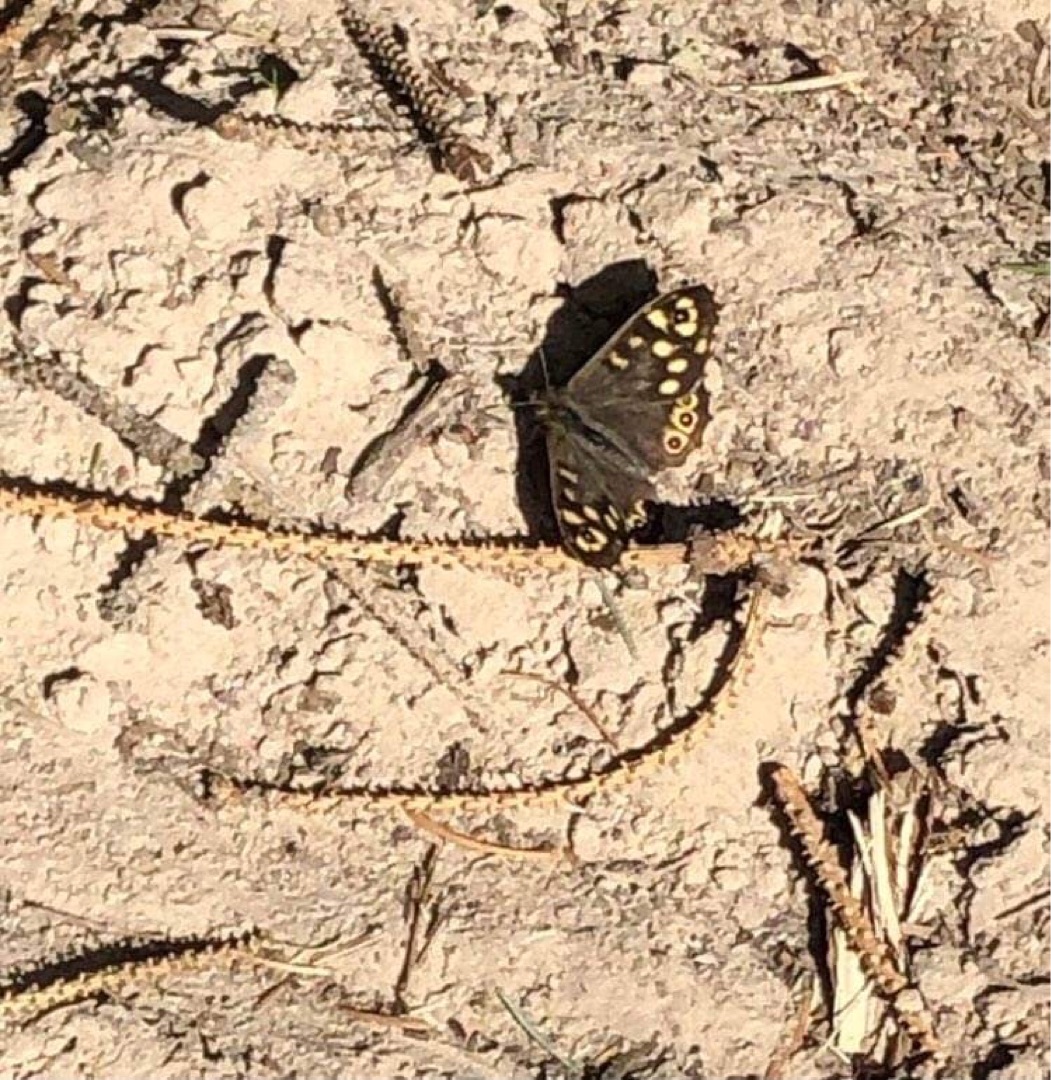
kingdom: Animalia
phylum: Arthropoda
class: Insecta
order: Lepidoptera
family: Nymphalidae
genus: Pararge
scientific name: Pararge aegeria
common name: Skovrandøje
